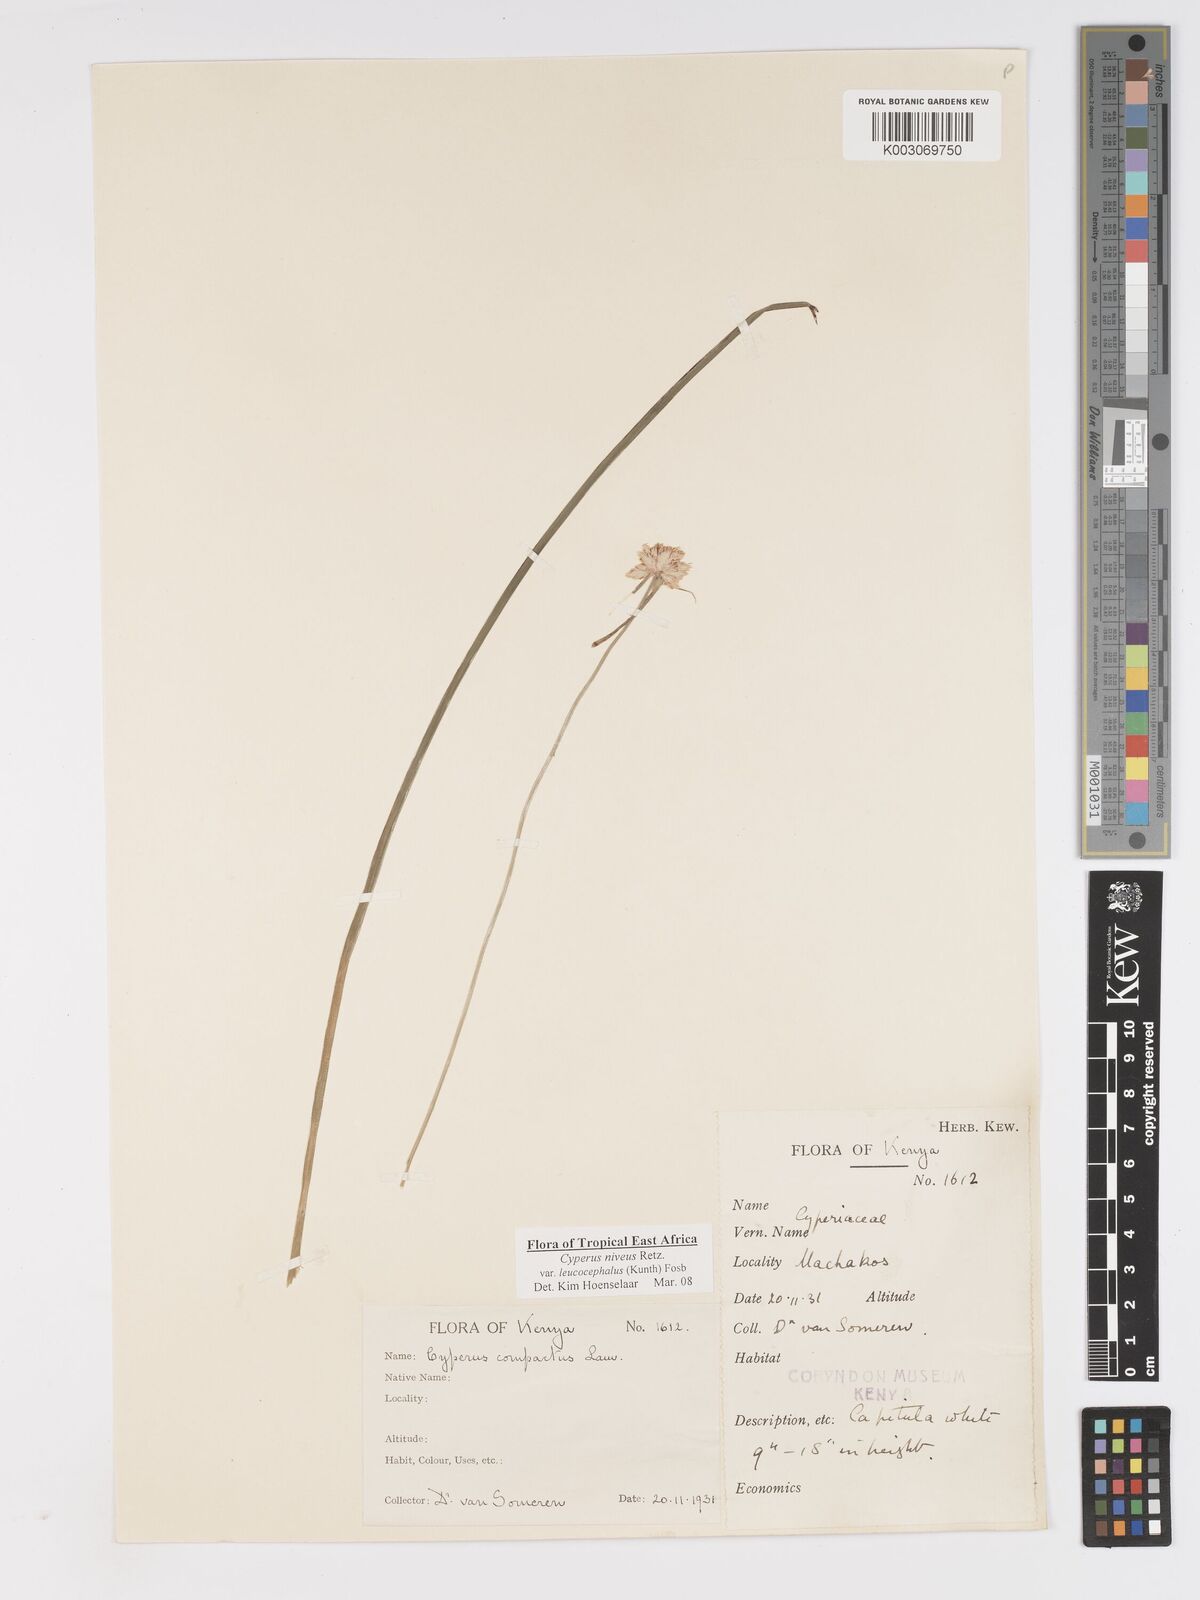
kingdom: Plantae
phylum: Tracheophyta
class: Liliopsida
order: Poales
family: Cyperaceae
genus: Cyperus
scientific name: Cyperus niveus
